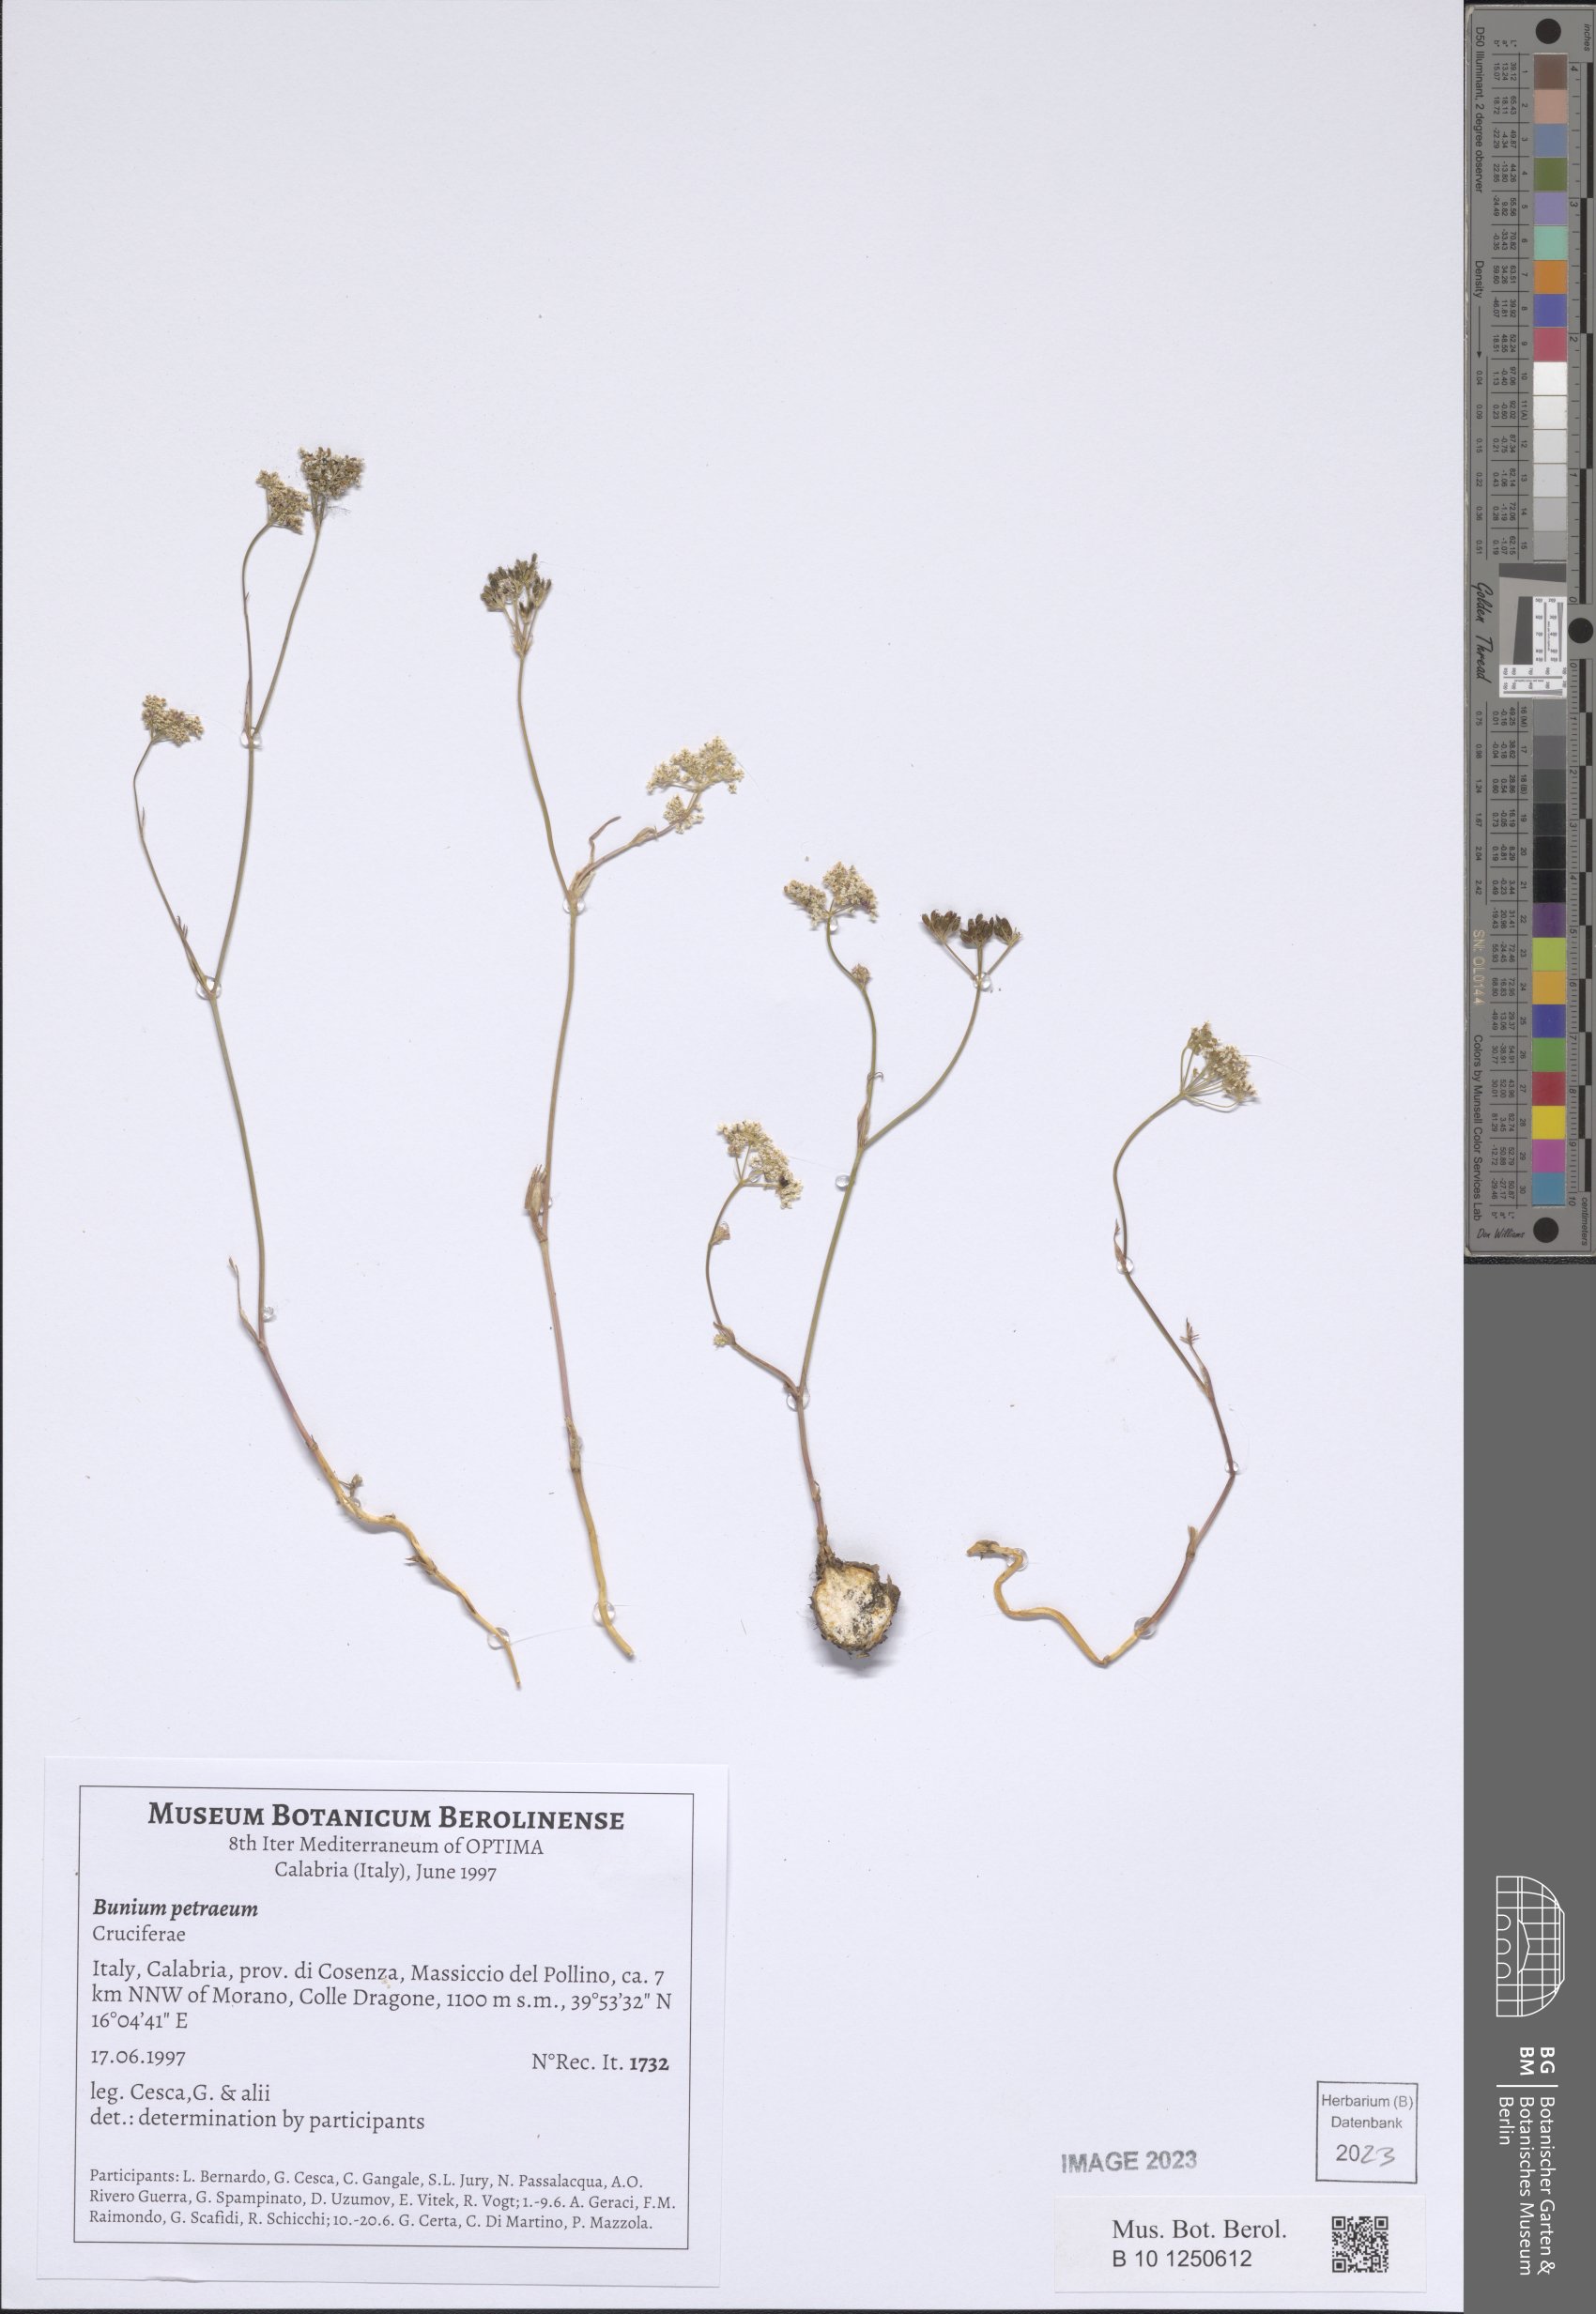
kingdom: Plantae
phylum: Tracheophyta
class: Magnoliopsida
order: Apiales
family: Apiaceae
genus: Bunium
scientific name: Bunium alpinum
